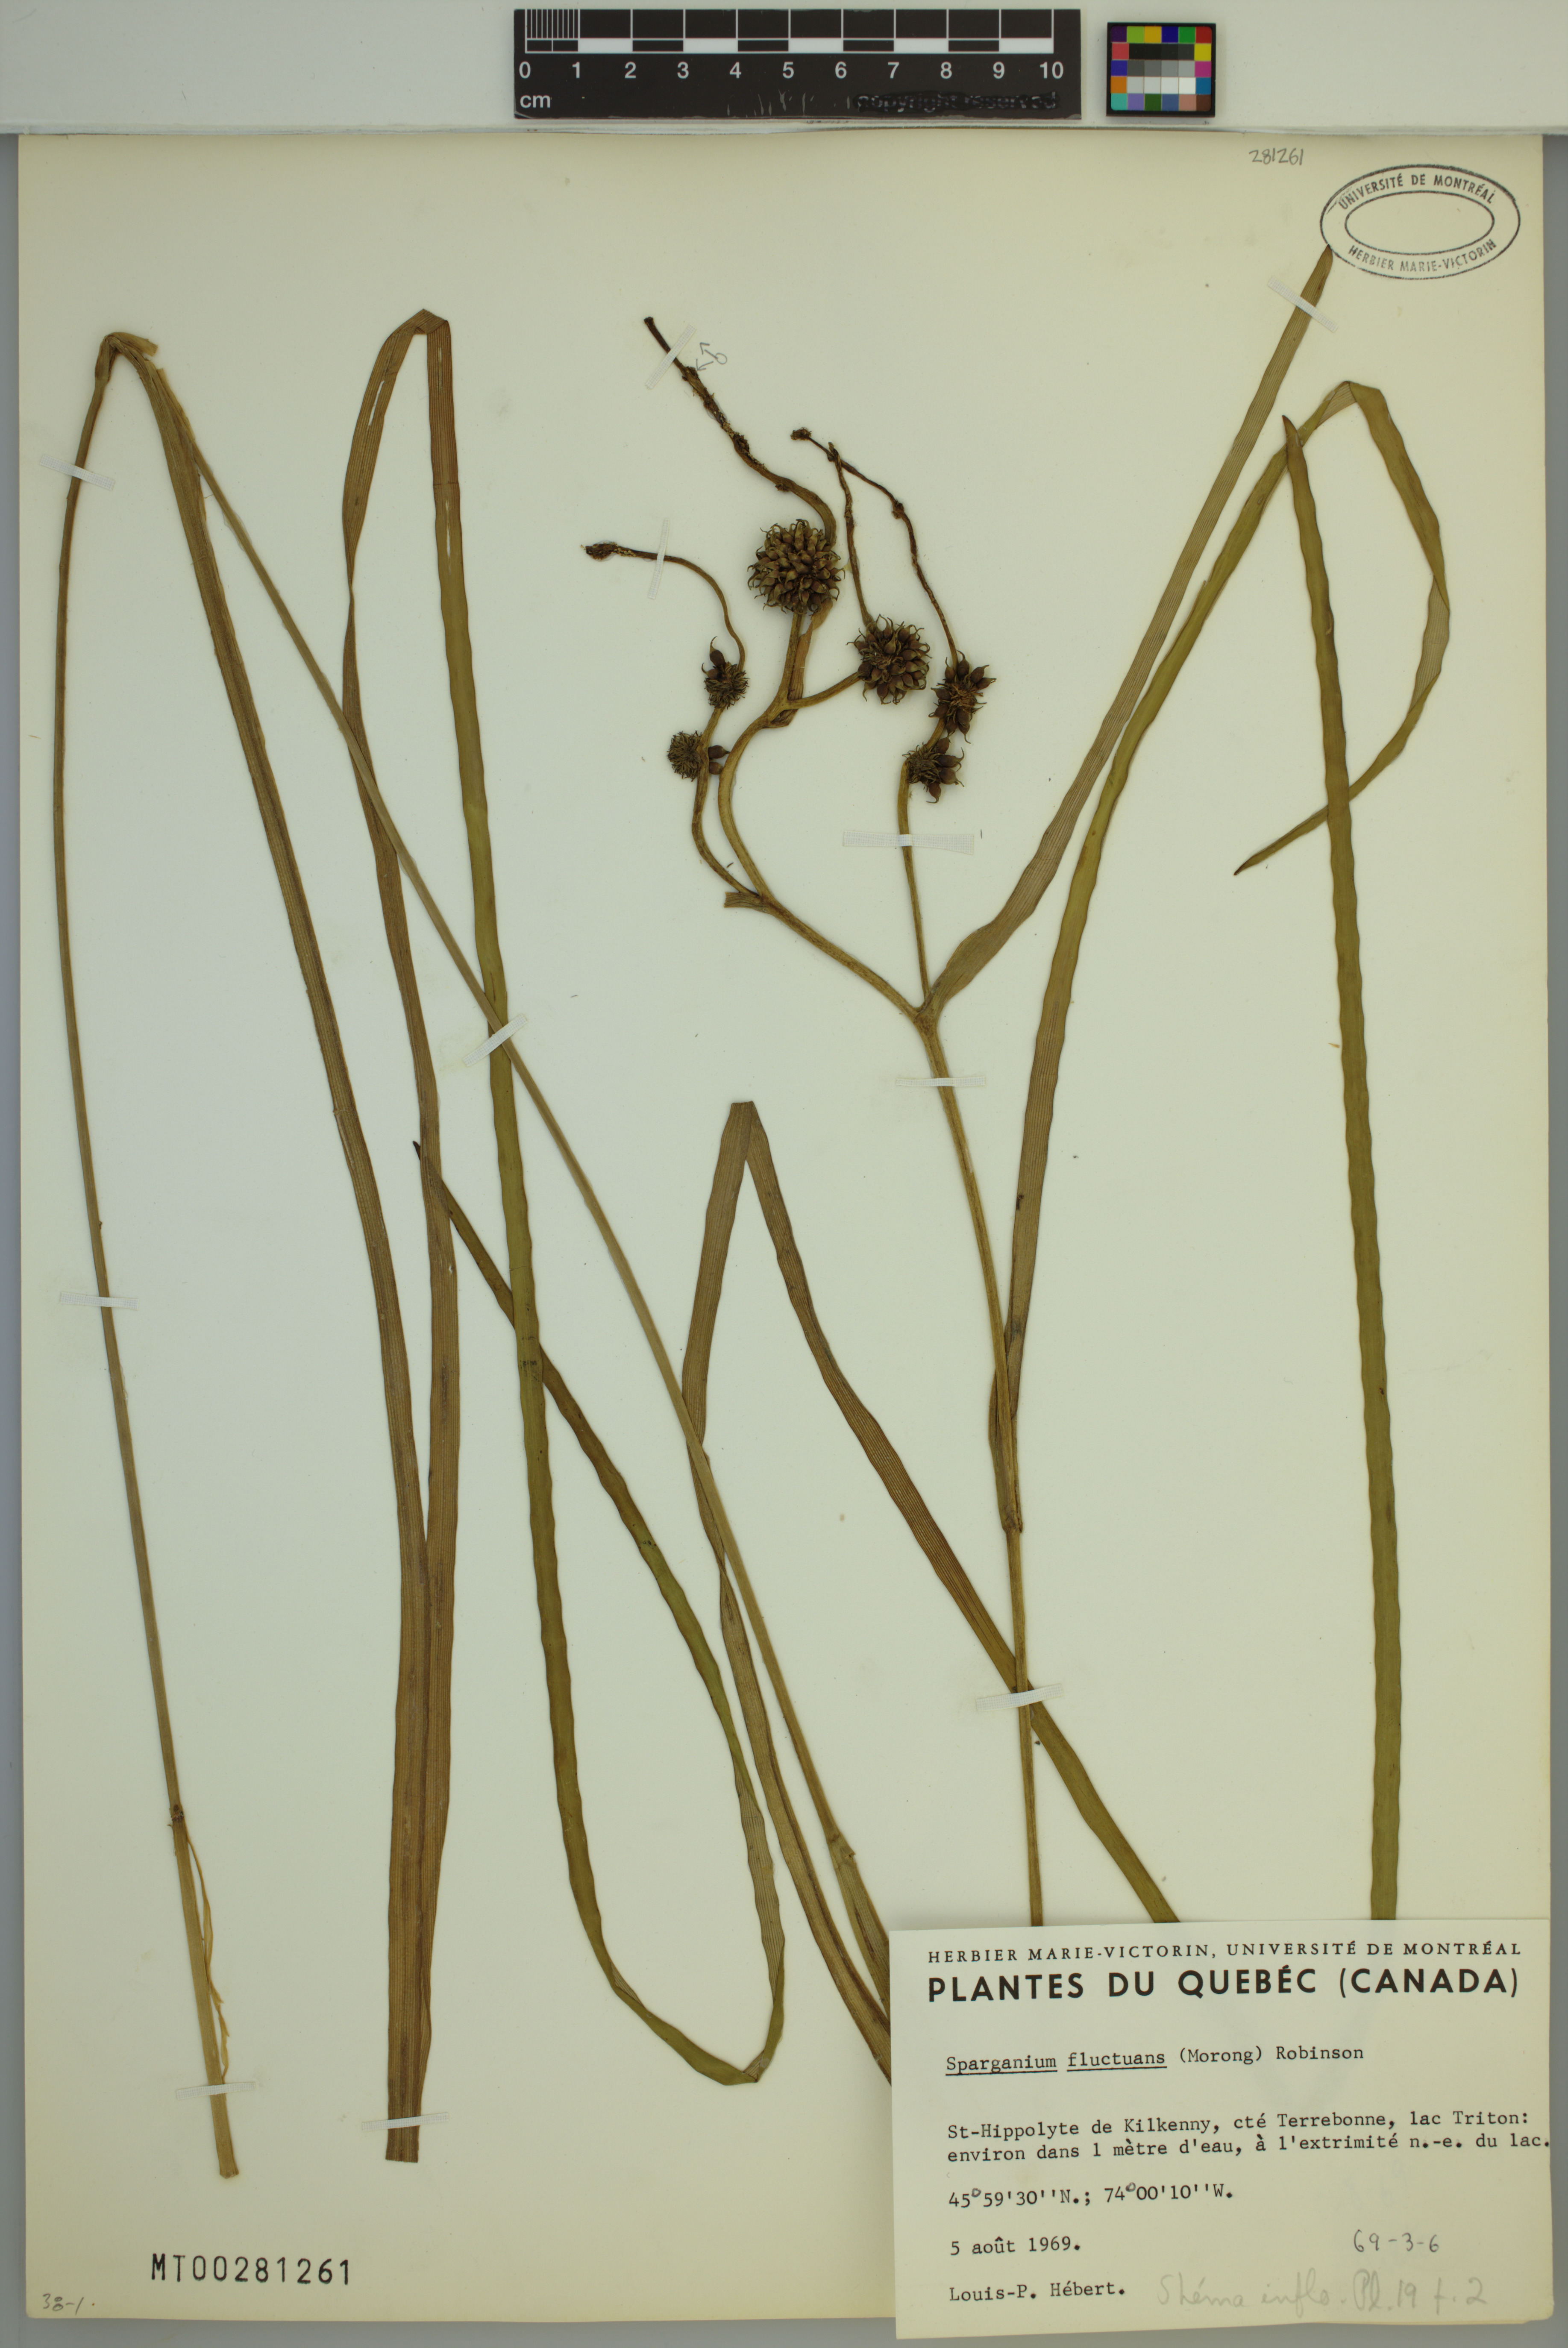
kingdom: Plantae
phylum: Tracheophyta
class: Liliopsida
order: Poales
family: Typhaceae
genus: Sparganium
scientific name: Sparganium fluctuans
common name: Floating burreed
